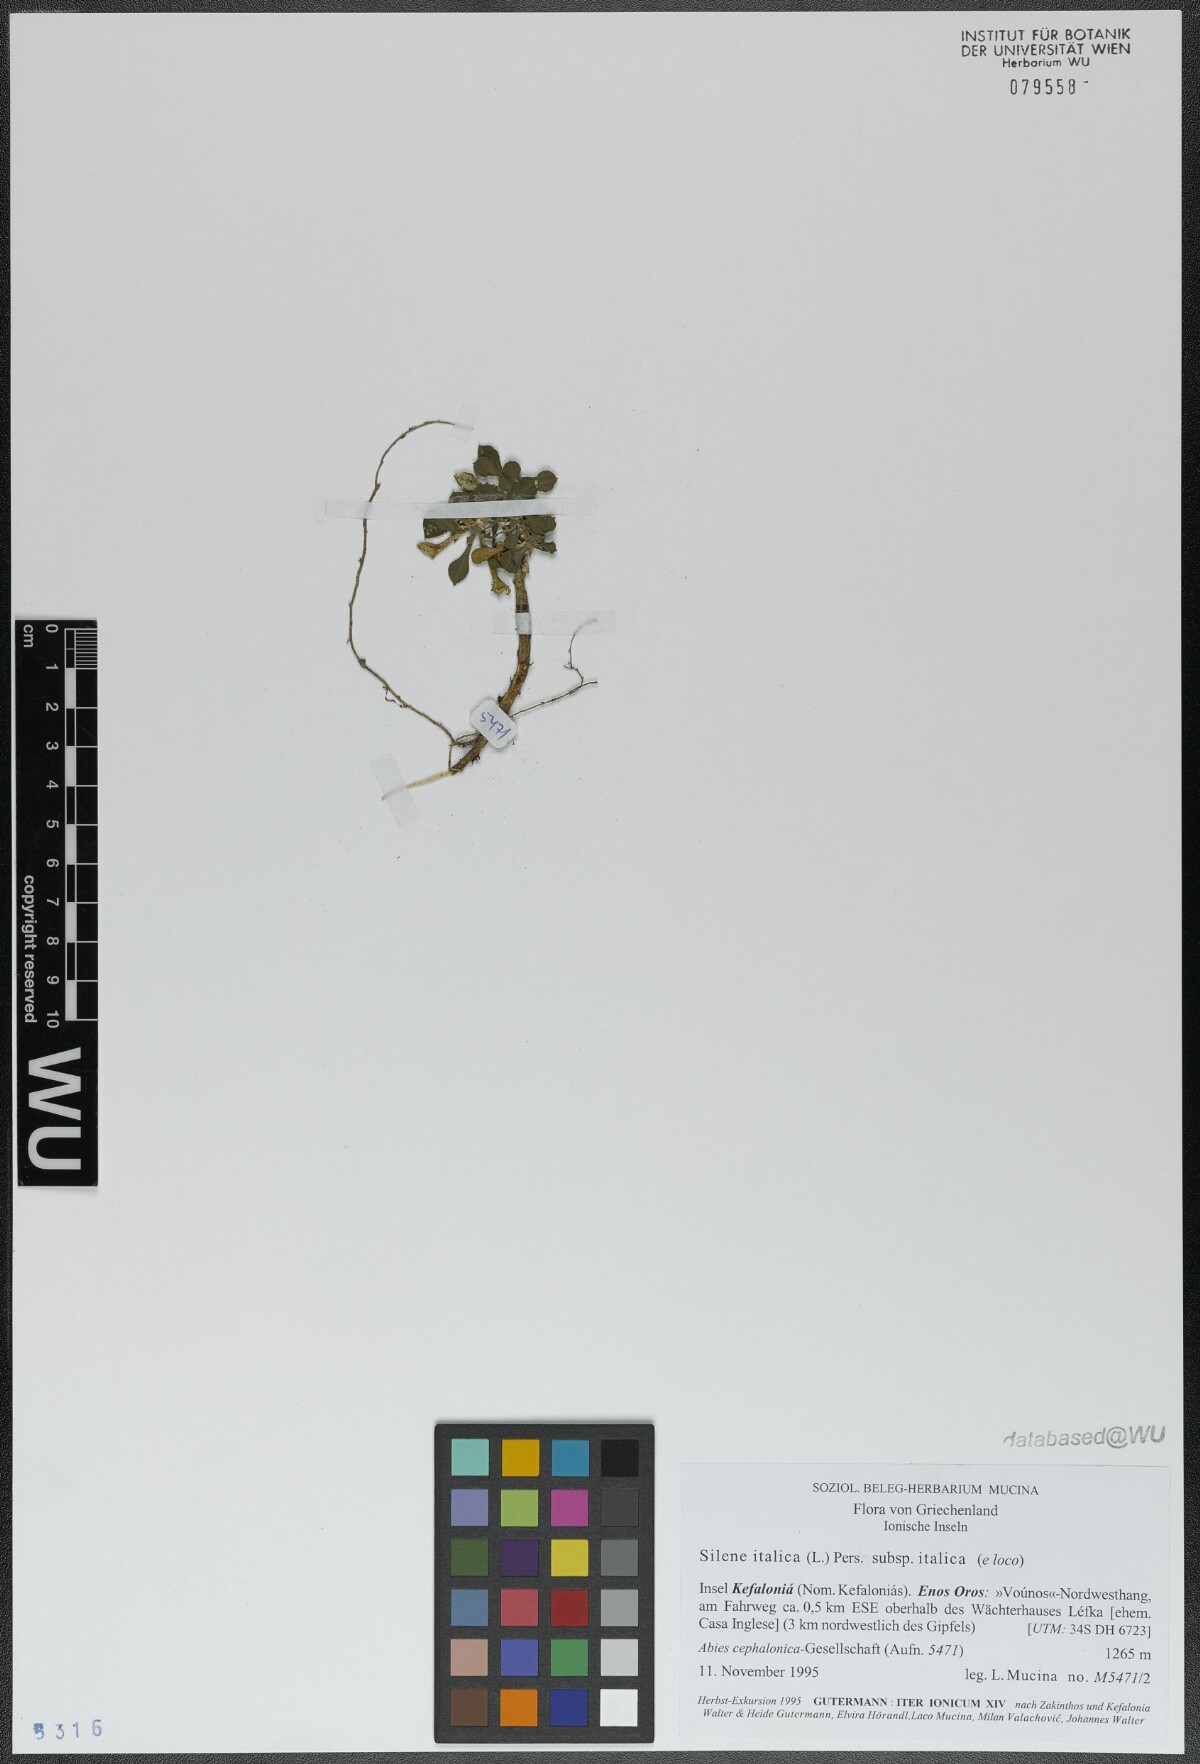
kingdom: Plantae
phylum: Tracheophyta
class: Magnoliopsida
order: Caryophyllales
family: Caryophyllaceae
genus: Silene
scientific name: Silene italica
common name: Italian catchfly
